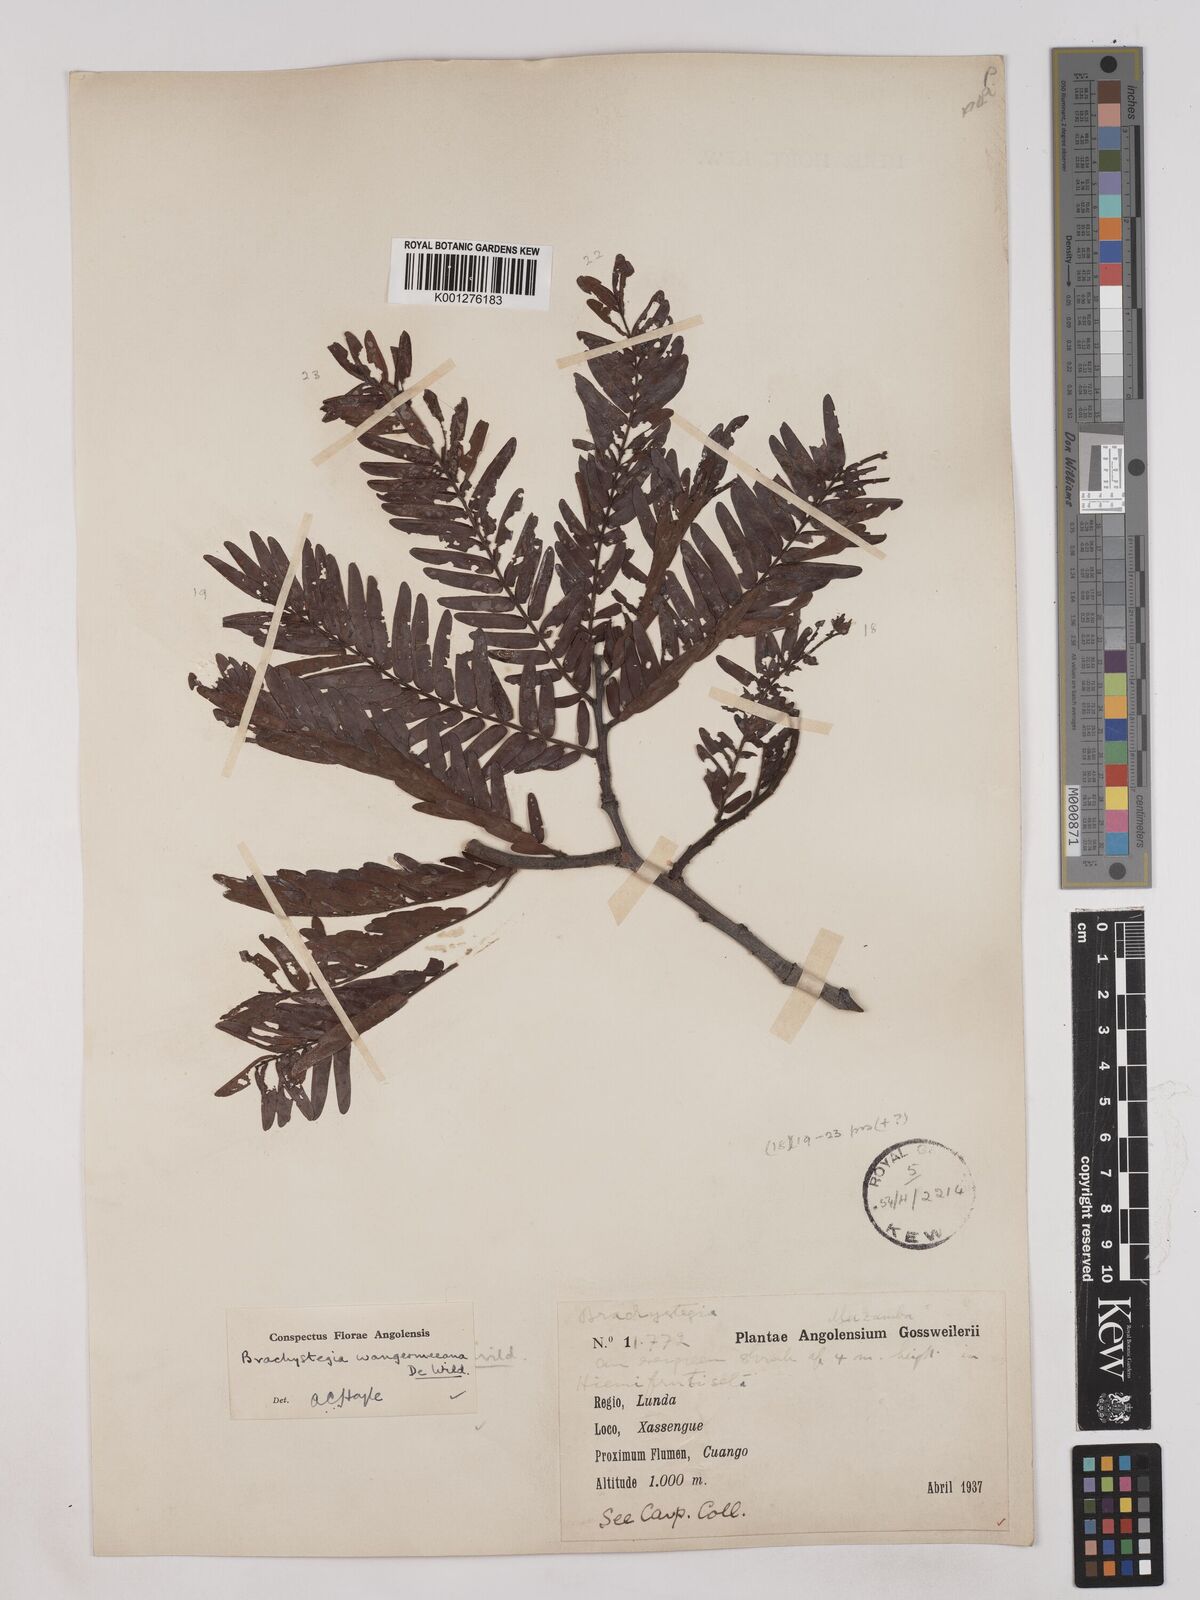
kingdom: Plantae
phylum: Tracheophyta
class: Magnoliopsida
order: Fabales
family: Fabaceae
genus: Brachystegia
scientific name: Brachystegia tamarindoides
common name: Mountain acacia
